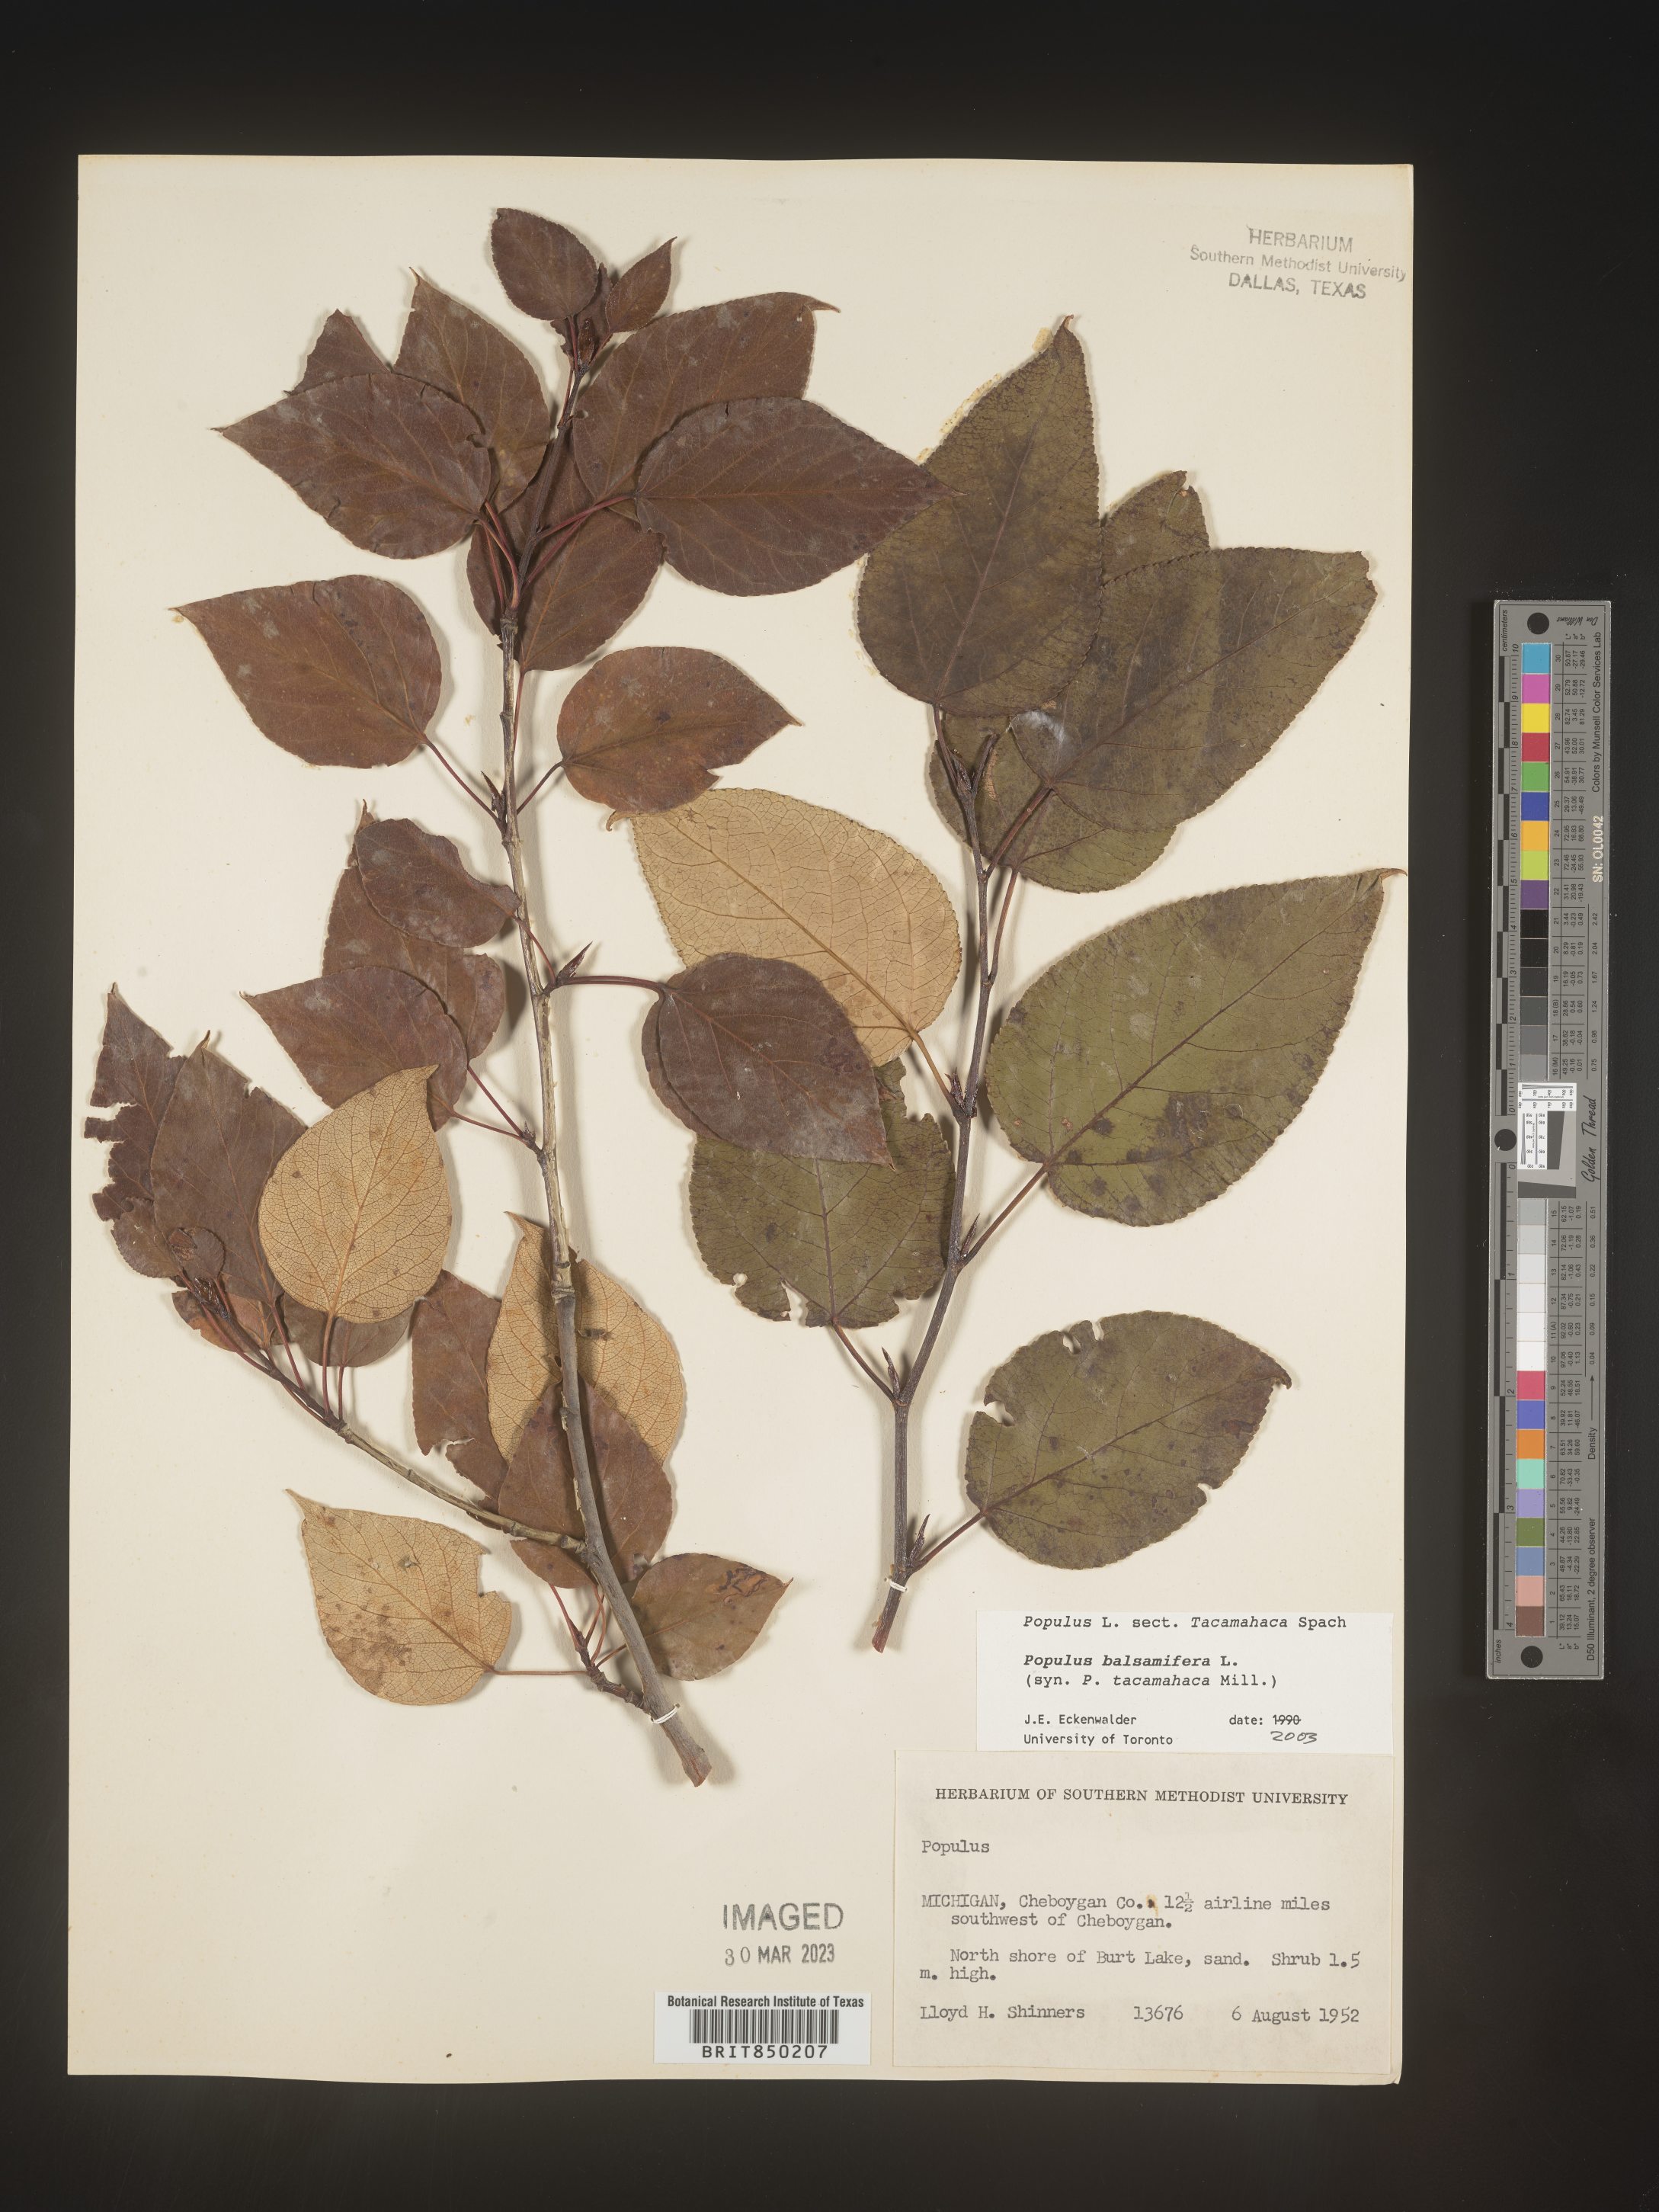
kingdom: Plantae
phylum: Tracheophyta
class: Magnoliopsida
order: Malpighiales
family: Salicaceae
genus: Populus
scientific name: Populus balsamifera
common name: Balsam poplar
